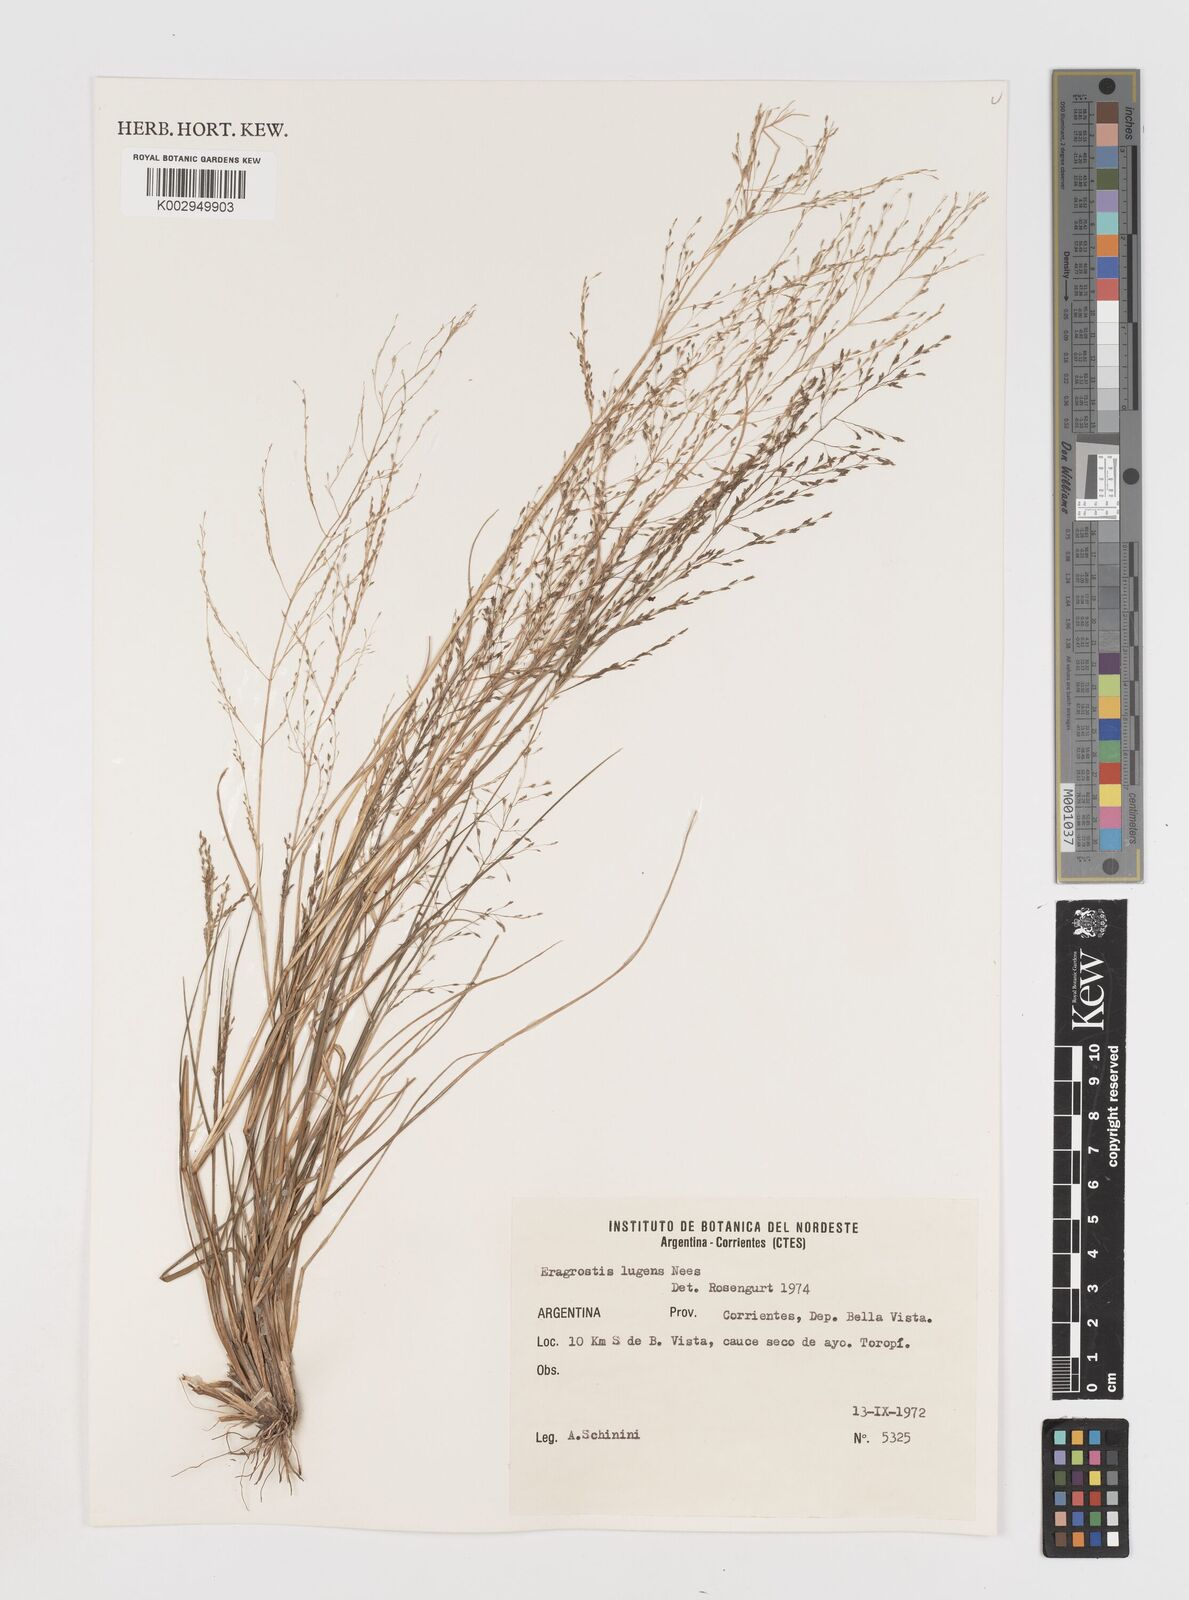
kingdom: Plantae
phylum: Tracheophyta
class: Liliopsida
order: Poales
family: Poaceae
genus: Eragrostis
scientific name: Eragrostis lugens
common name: Mourning love grass
